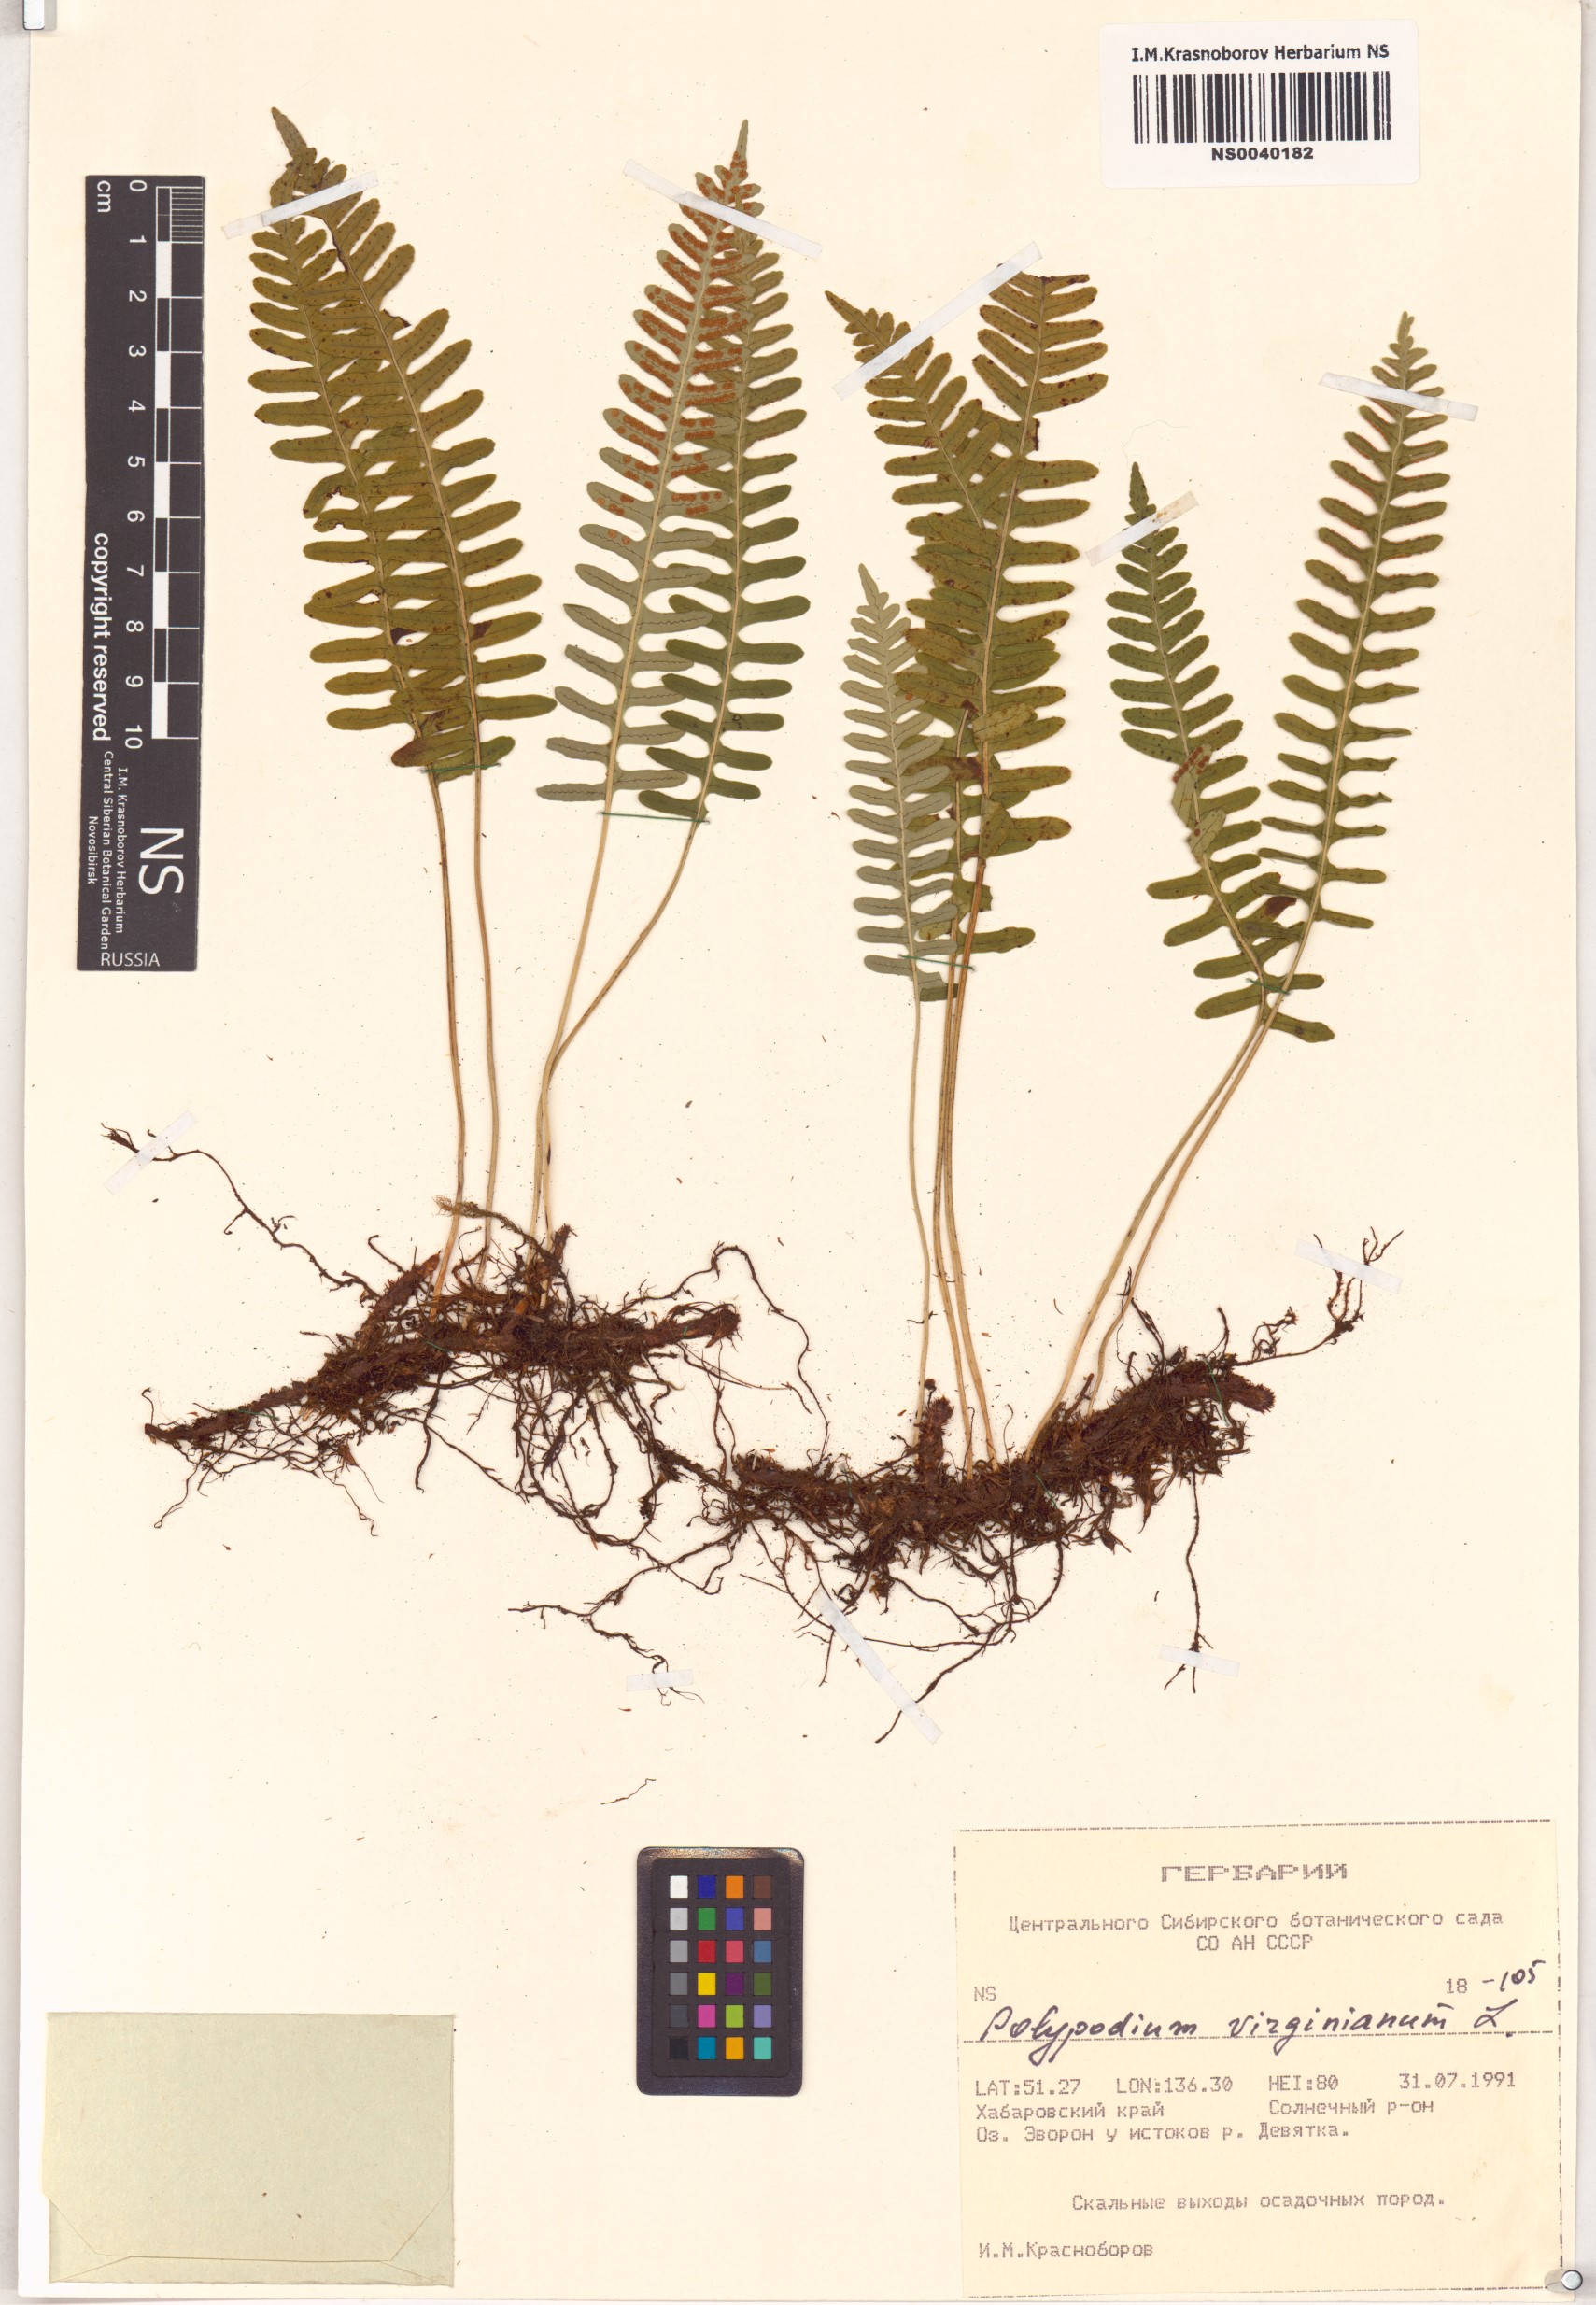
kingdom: Plantae
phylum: Tracheophyta
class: Polypodiopsida
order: Polypodiales
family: Polypodiaceae
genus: Polypodium
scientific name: Polypodium virginianum
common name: American wall fern
